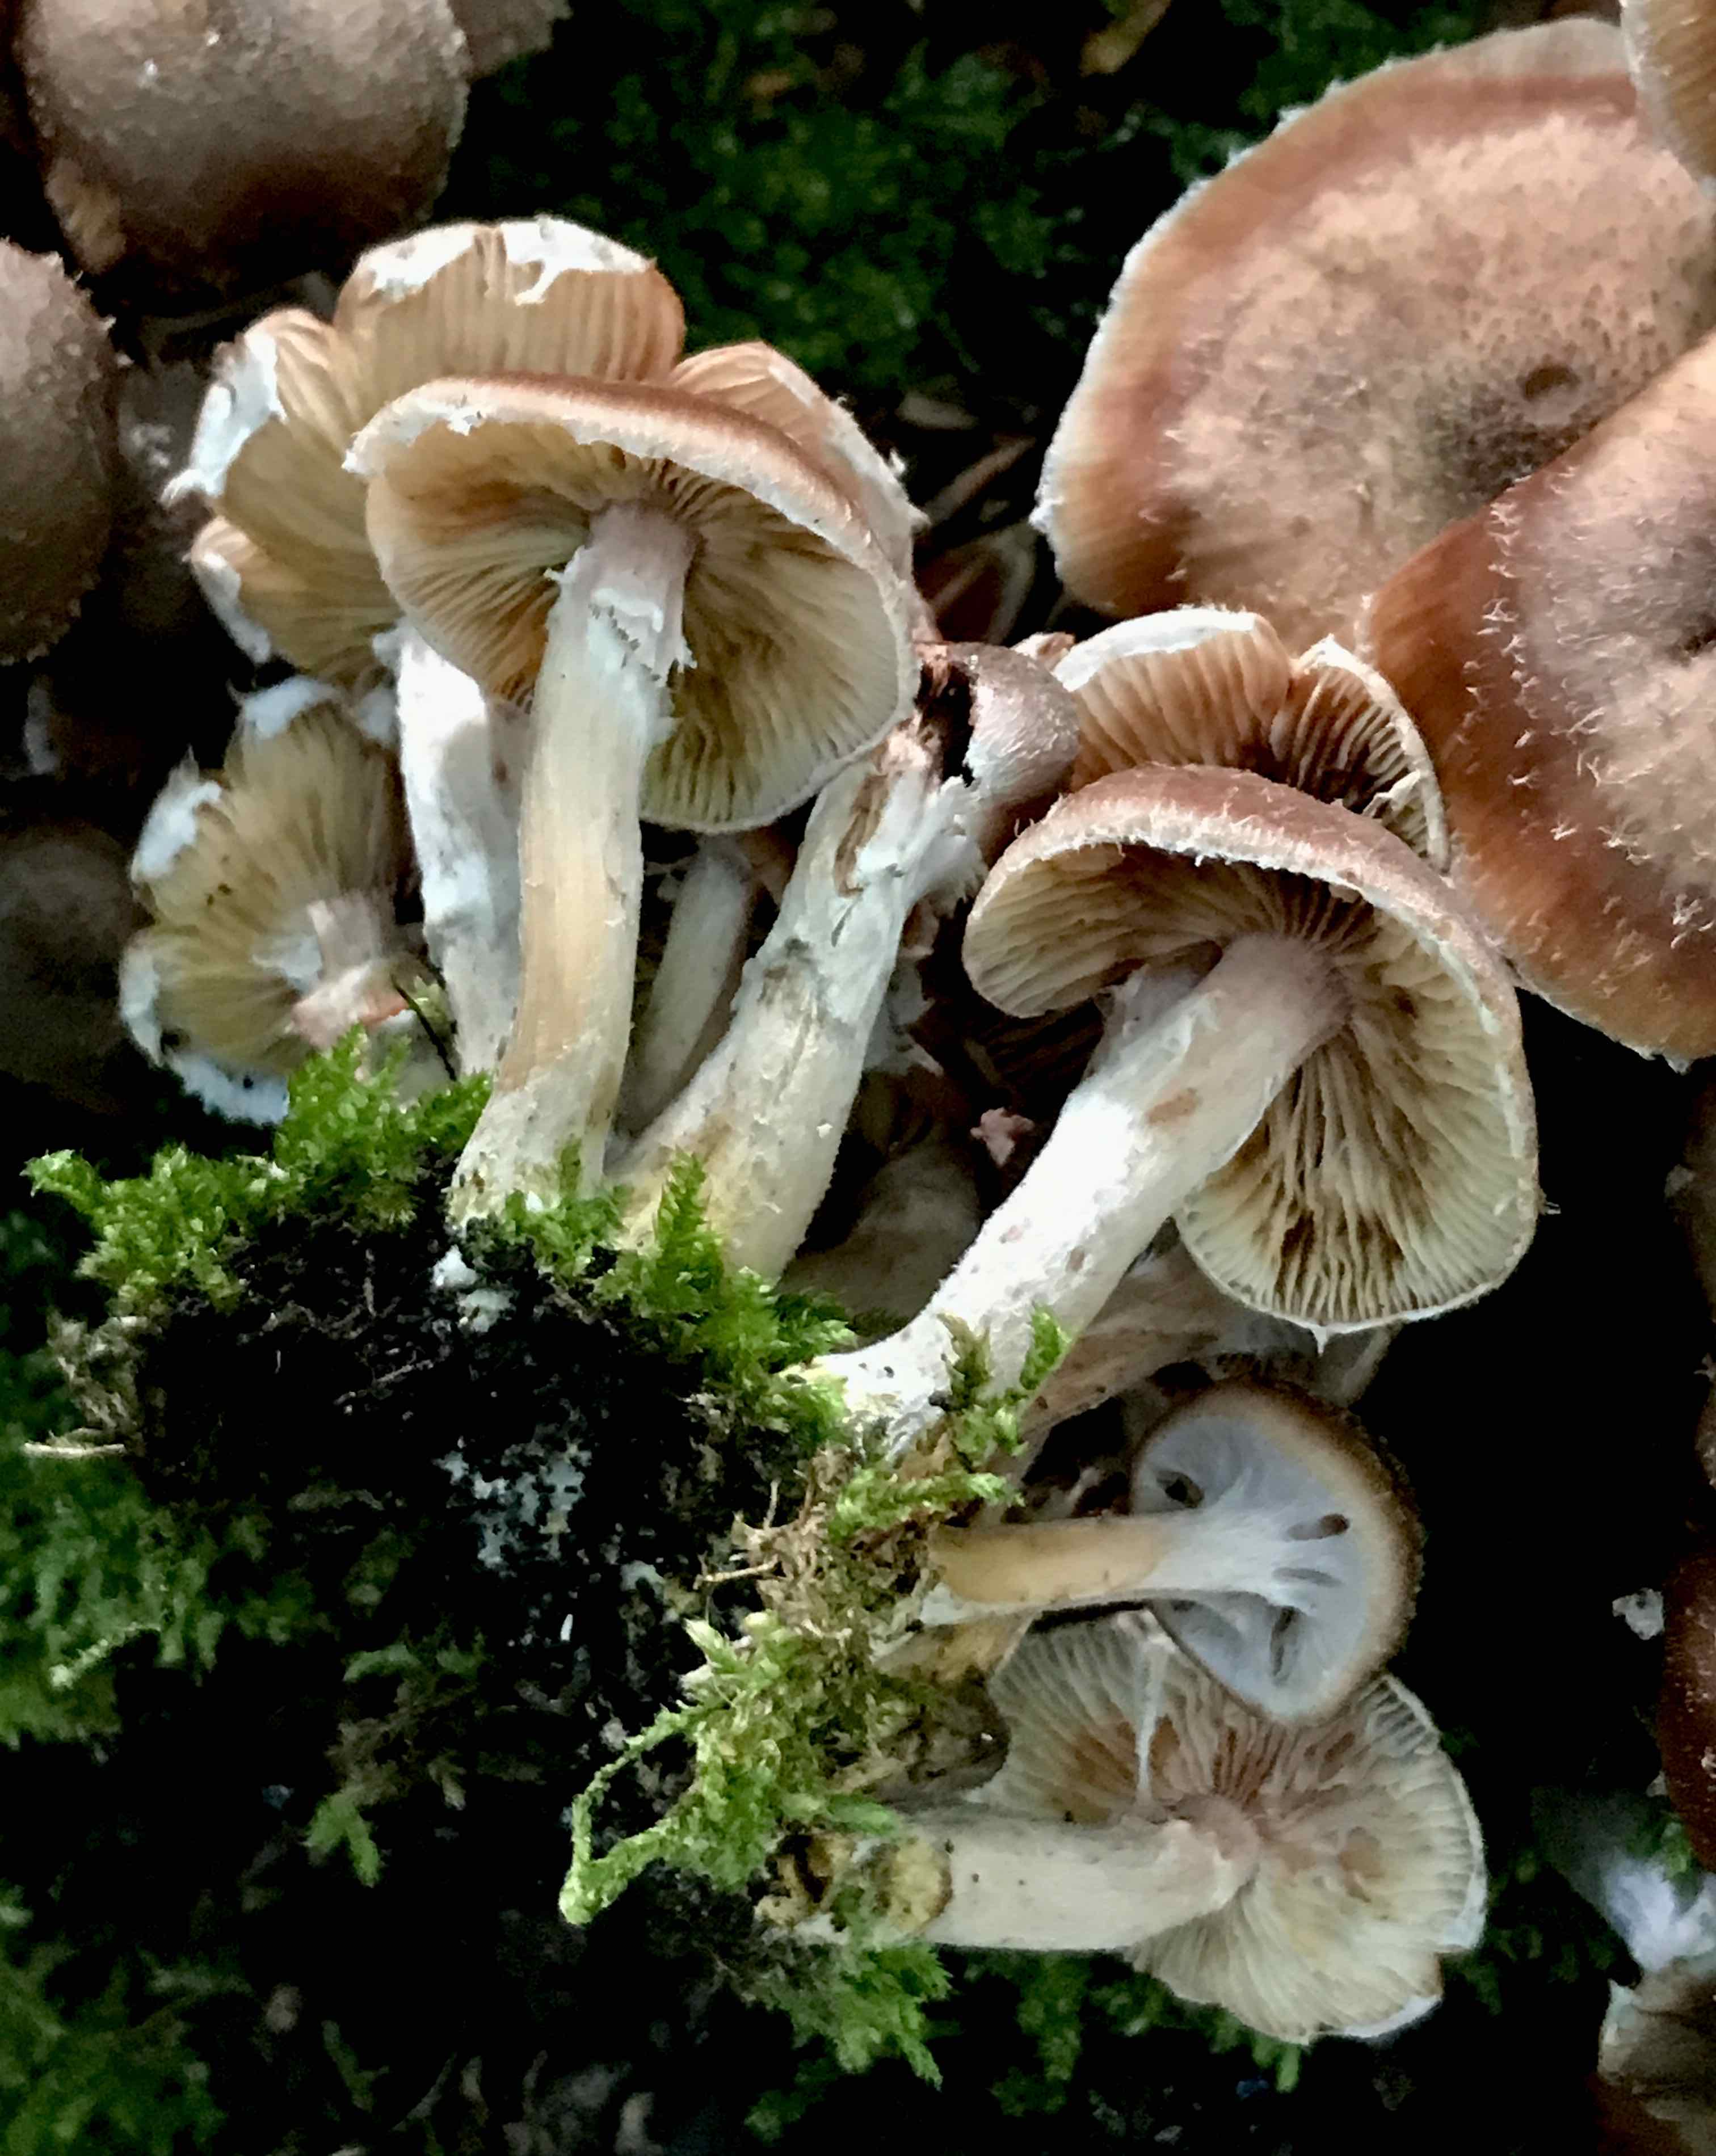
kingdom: Fungi
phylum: Basidiomycota
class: Agaricomycetes
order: Agaricales
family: Physalacriaceae
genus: Armillaria
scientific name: Armillaria lutea
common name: køllestokket honningsvamp
